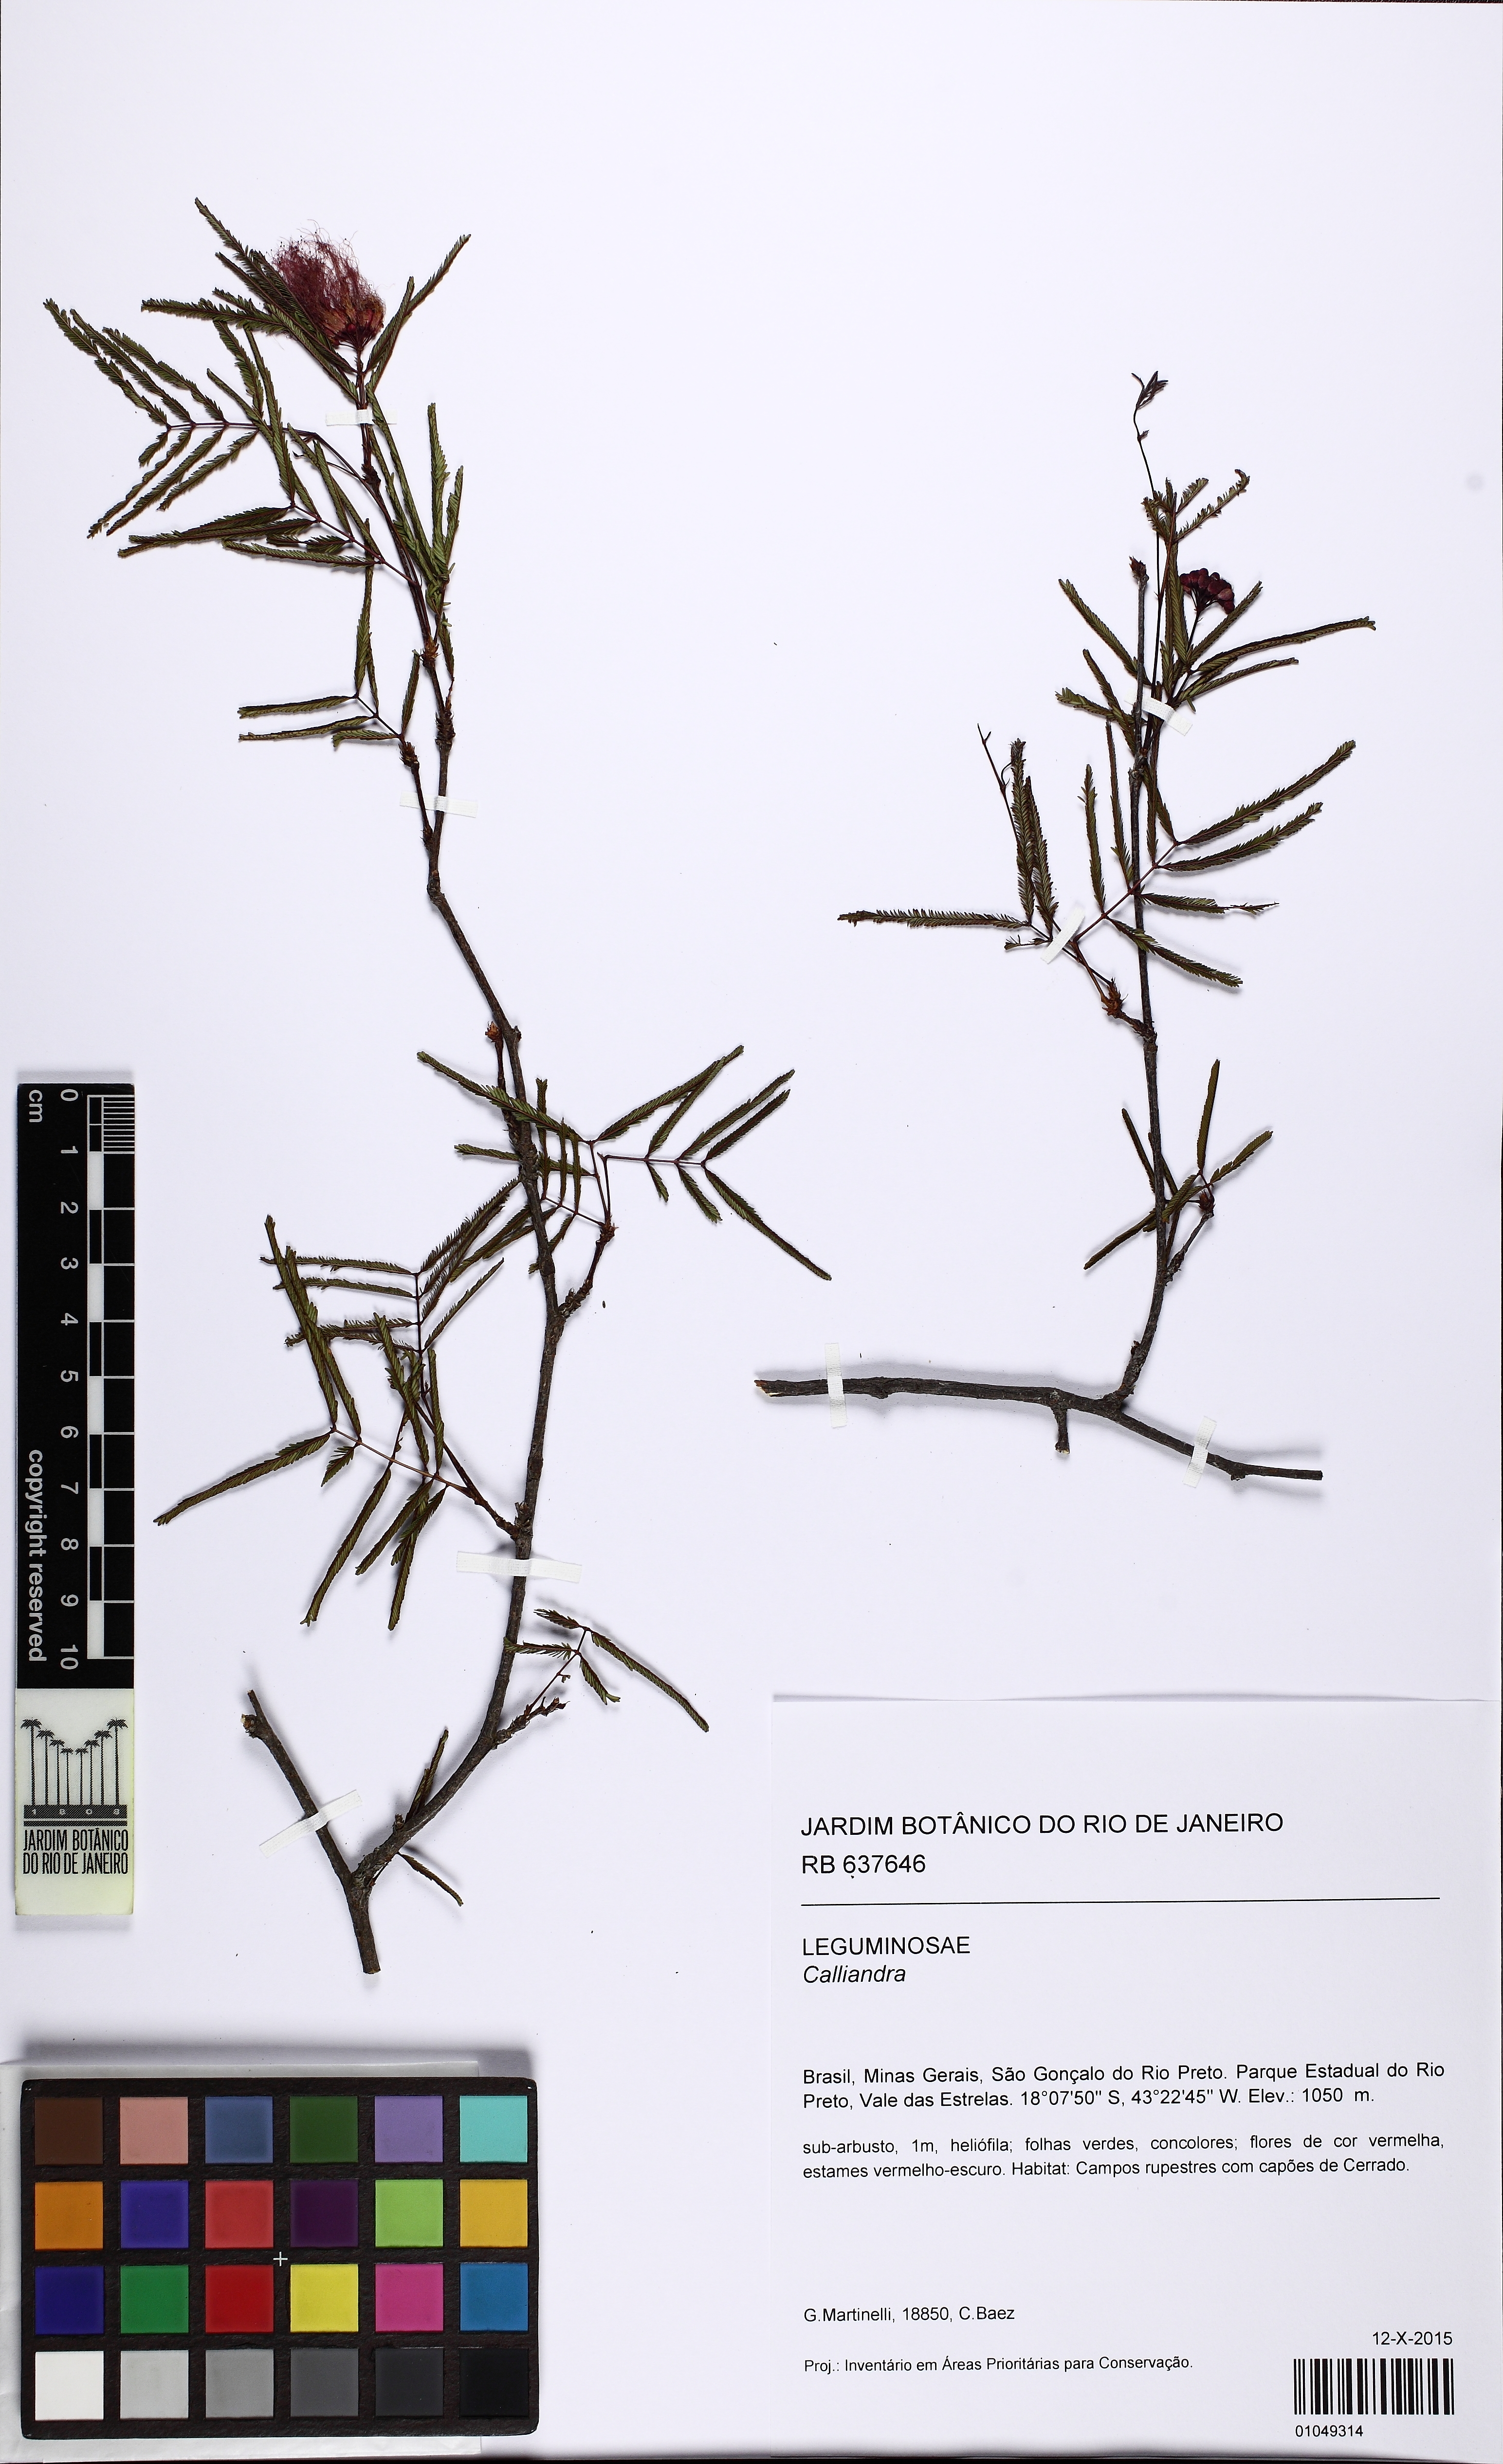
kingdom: Plantae
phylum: Tracheophyta
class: Magnoliopsida
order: Fabales
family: Fabaceae
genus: Calliandra
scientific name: Calliandra
